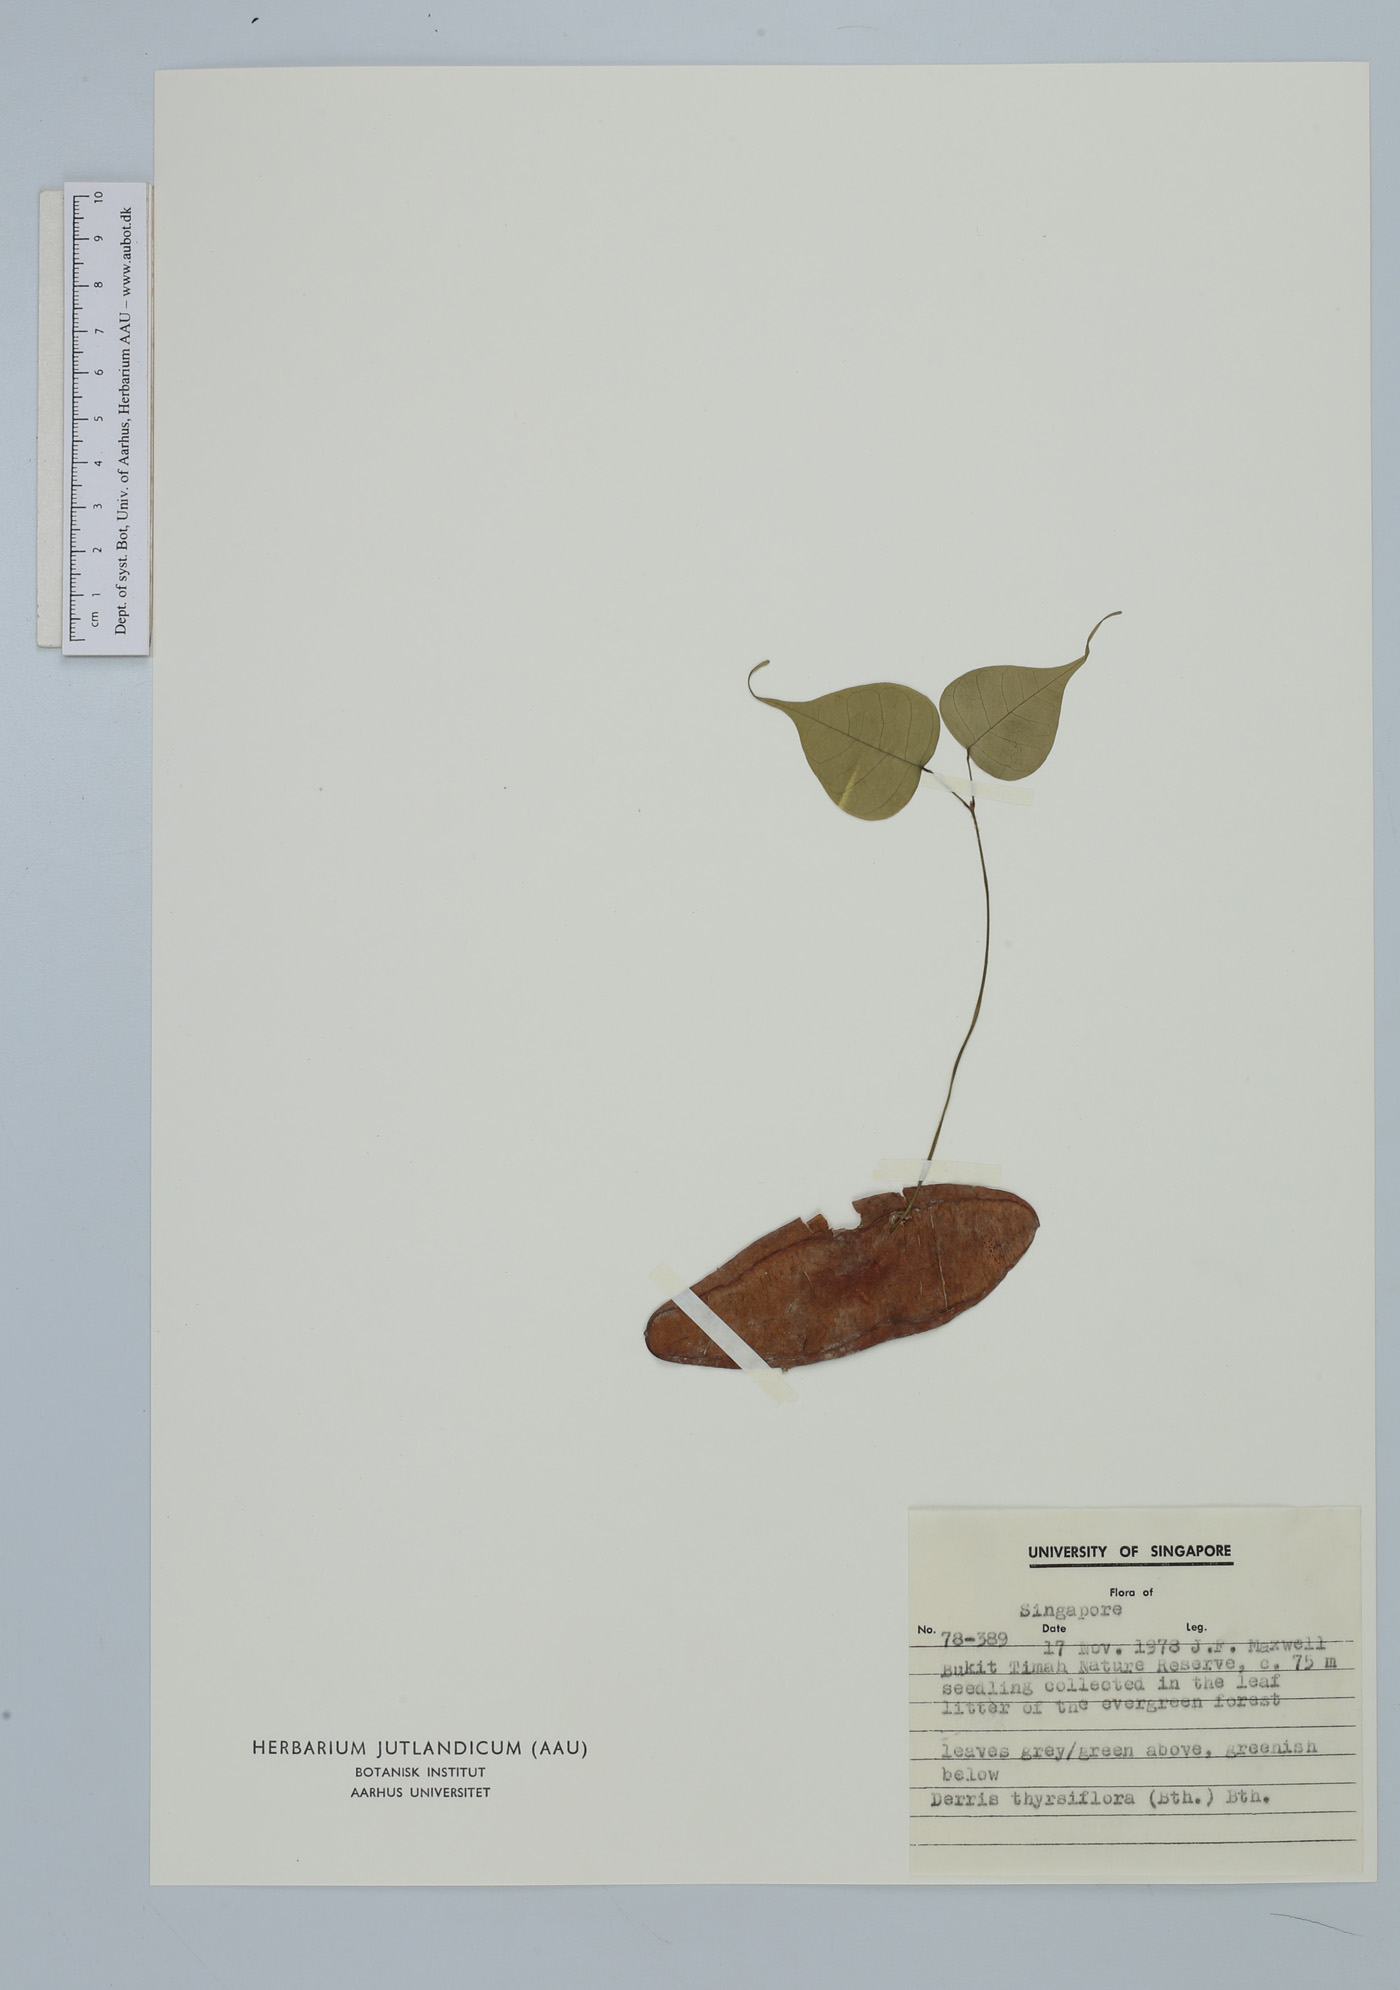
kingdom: Plantae
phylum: Tracheophyta
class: Magnoliopsida
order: Fabales
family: Fabaceae
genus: Aganope
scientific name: Aganope thyrsiflora
